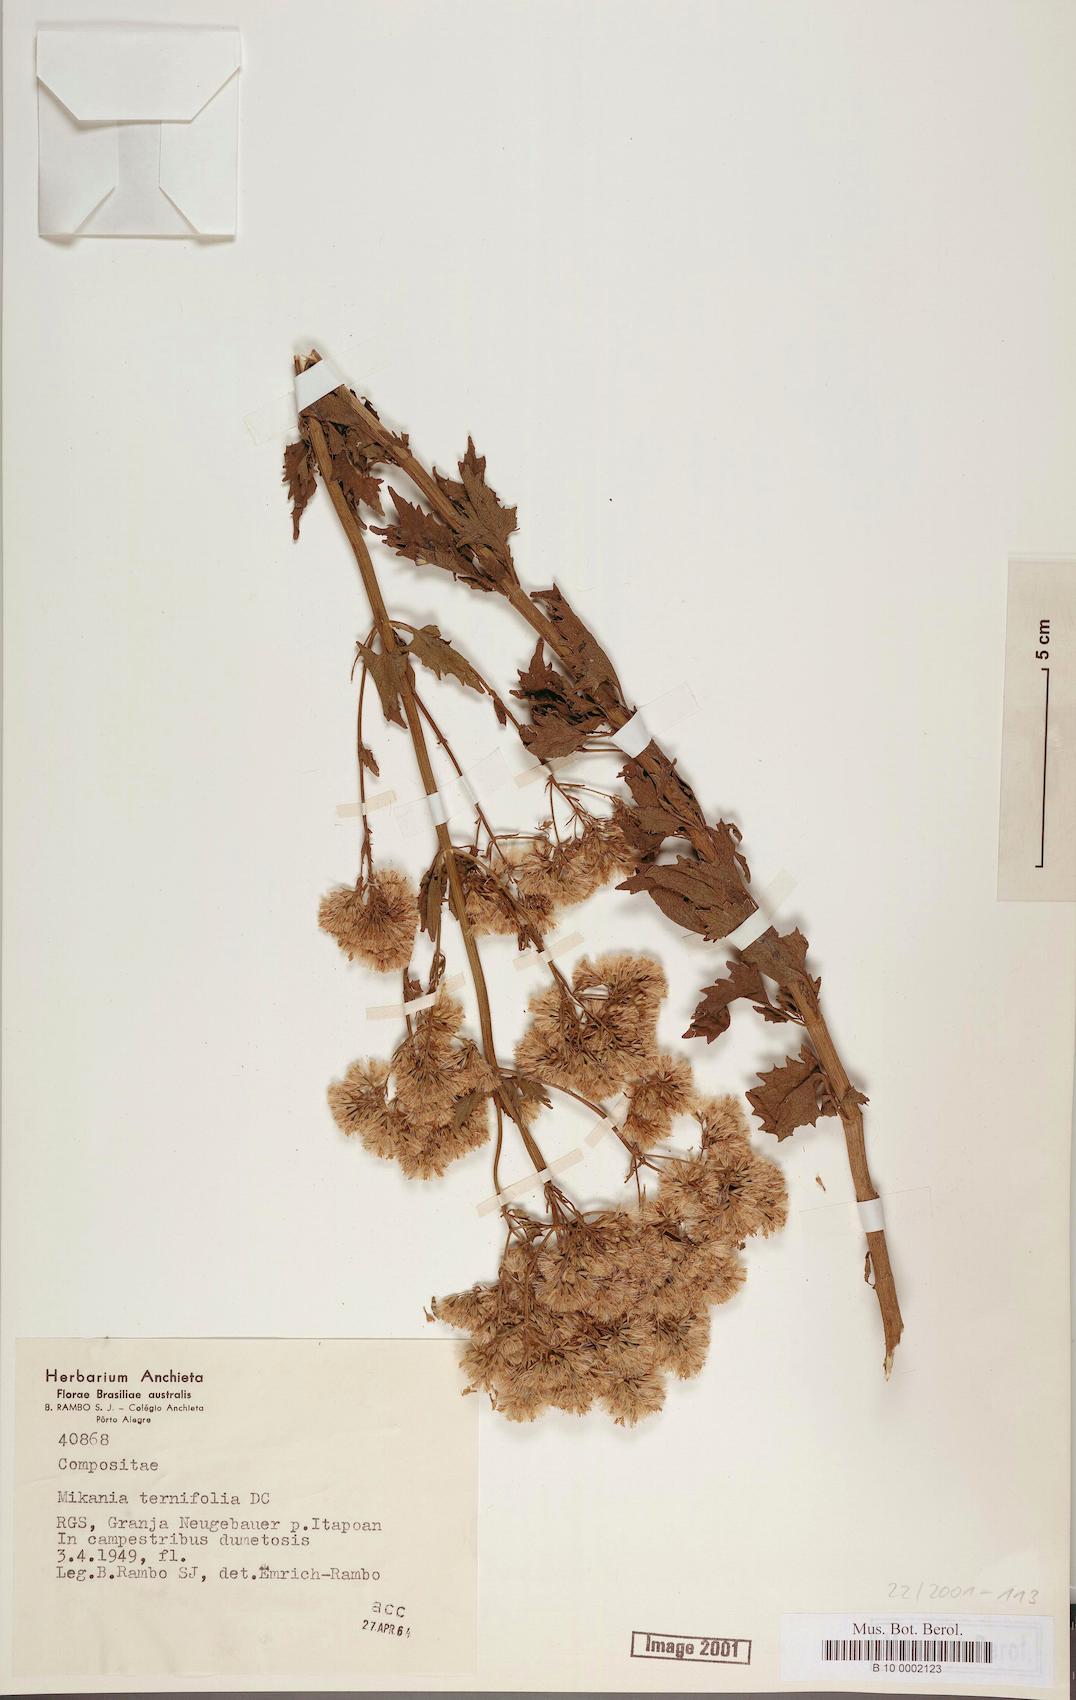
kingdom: Plantae
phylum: Tracheophyta
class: Magnoliopsida
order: Asterales
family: Asteraceae
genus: Mikania
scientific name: Mikania fulva
